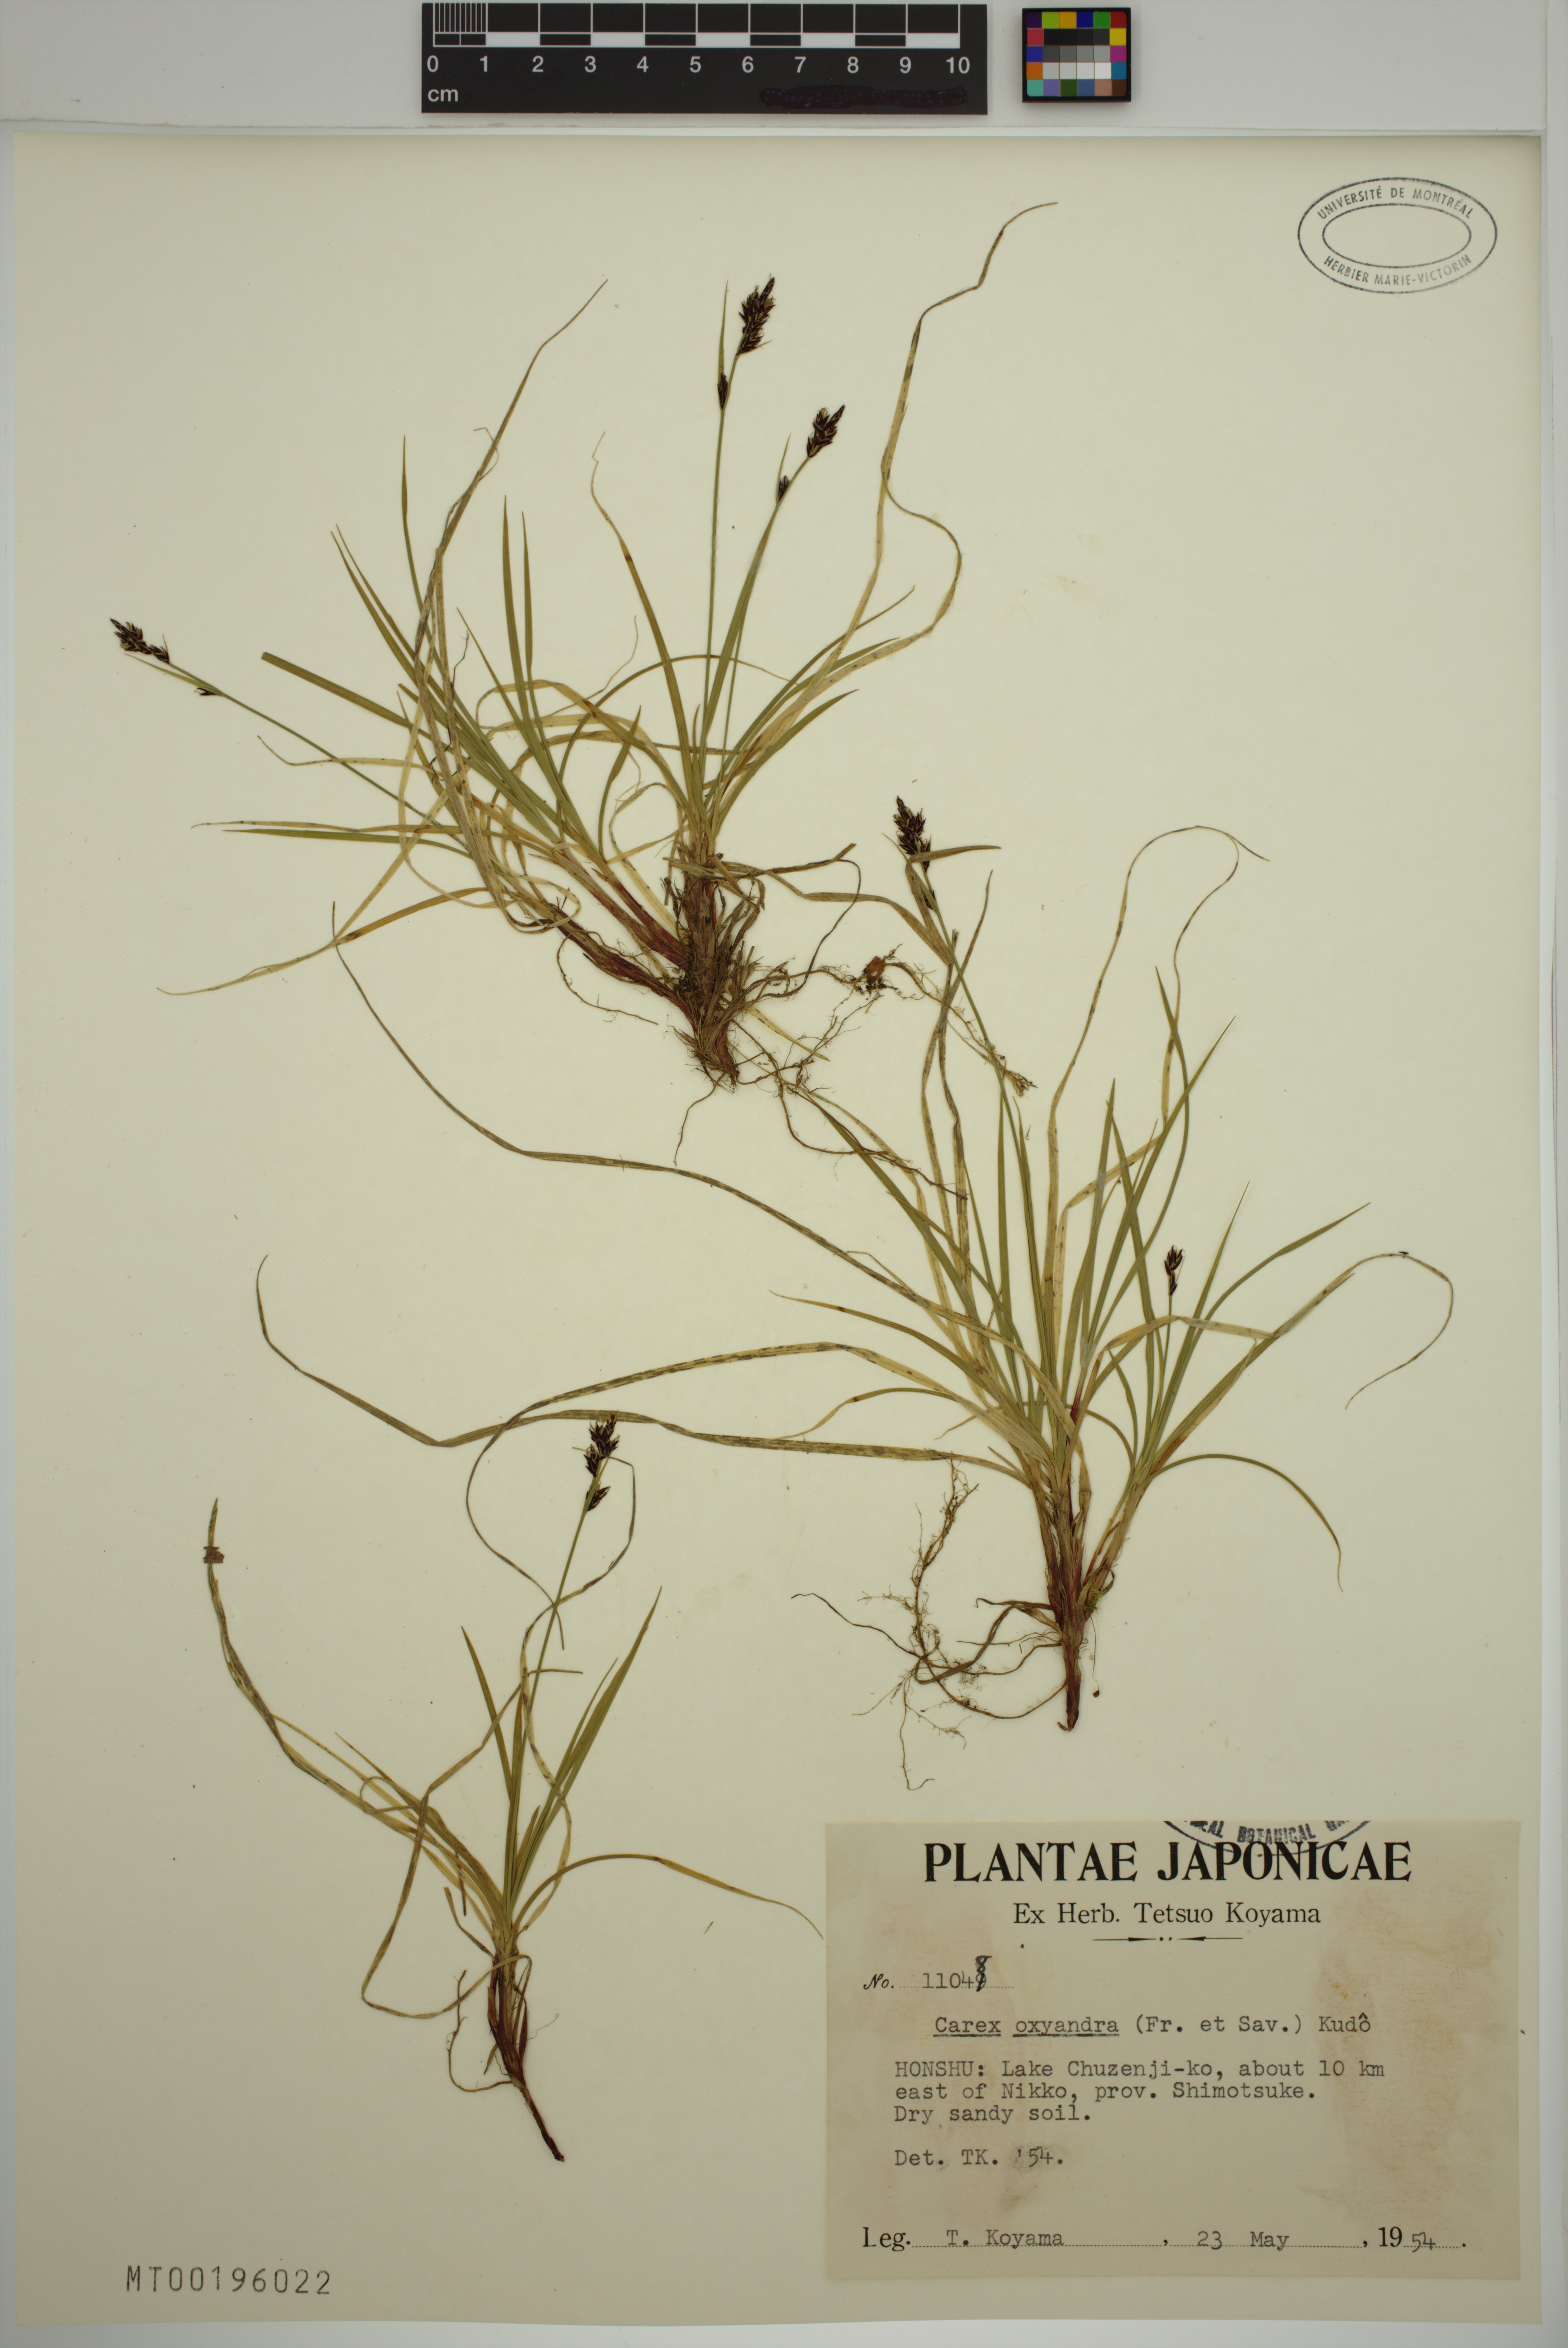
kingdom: Plantae
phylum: Tracheophyta
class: Liliopsida
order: Poales
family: Cyperaceae
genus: Carex
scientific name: Carex oxyandra
